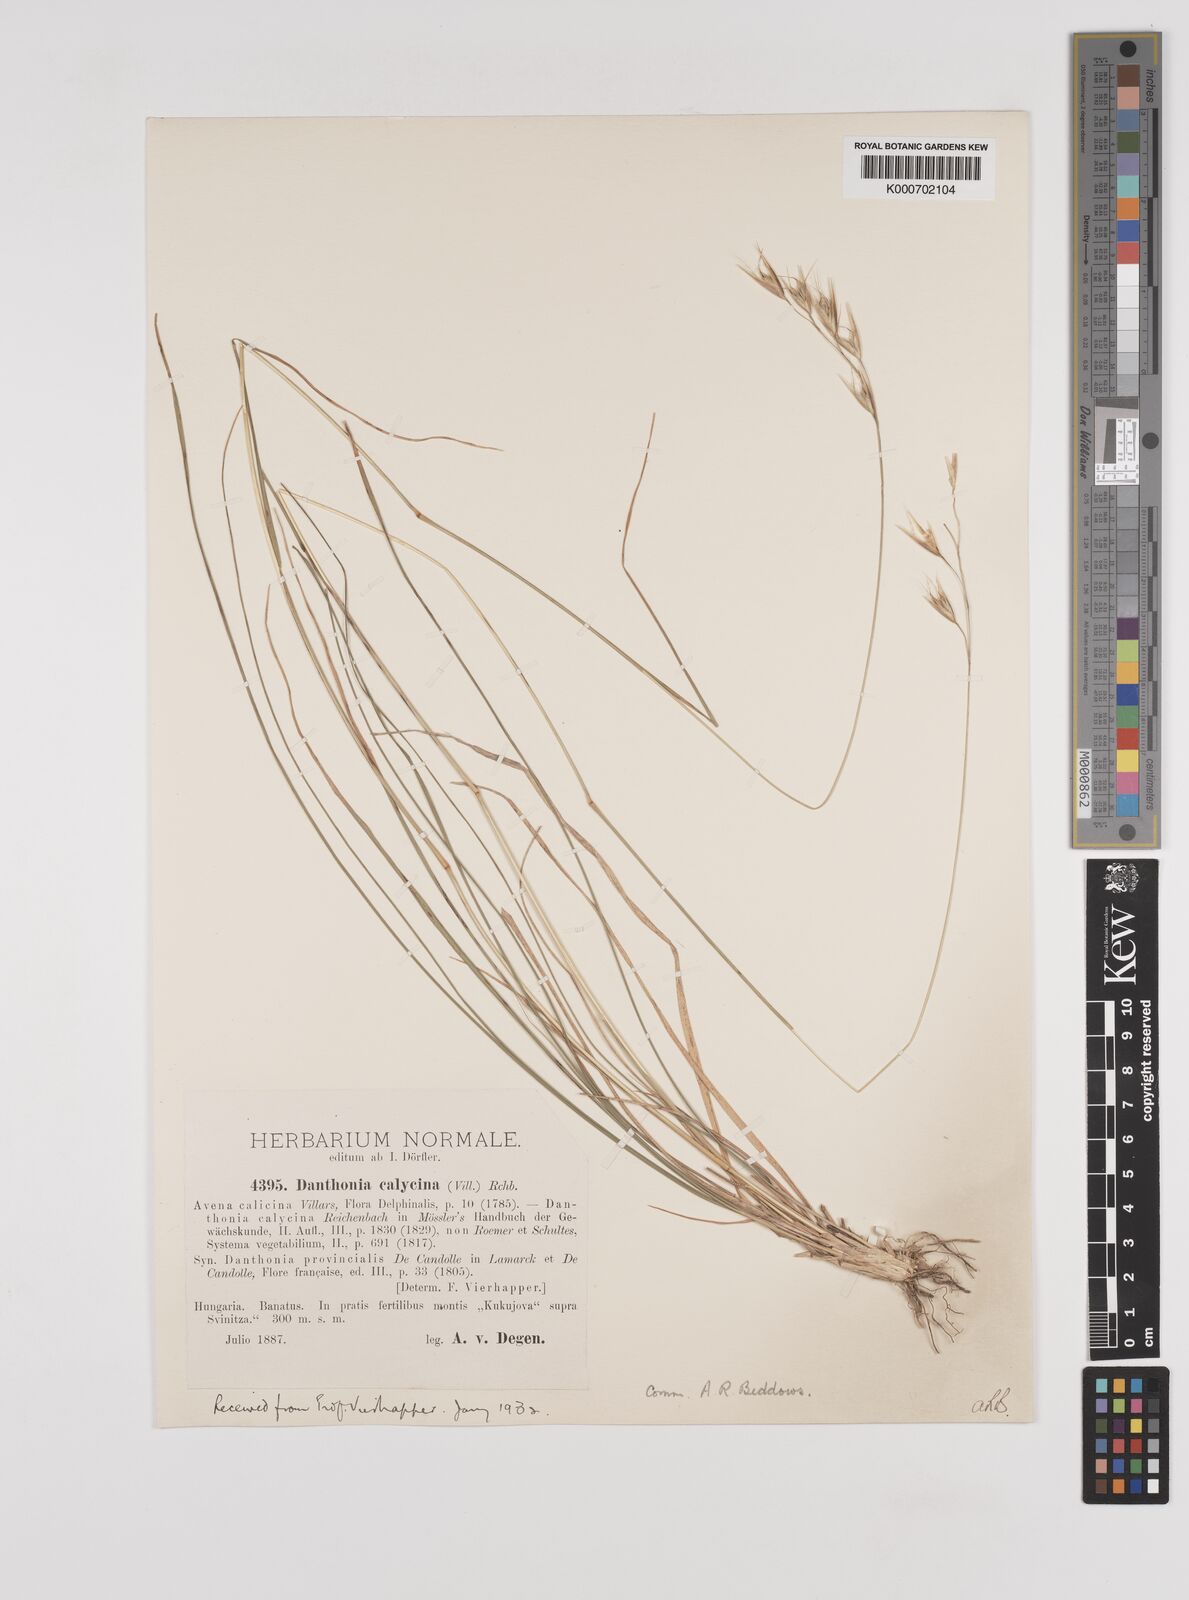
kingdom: Plantae
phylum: Tracheophyta
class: Liliopsida
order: Poales
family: Poaceae
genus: Danthonia
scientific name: Danthonia alpina
